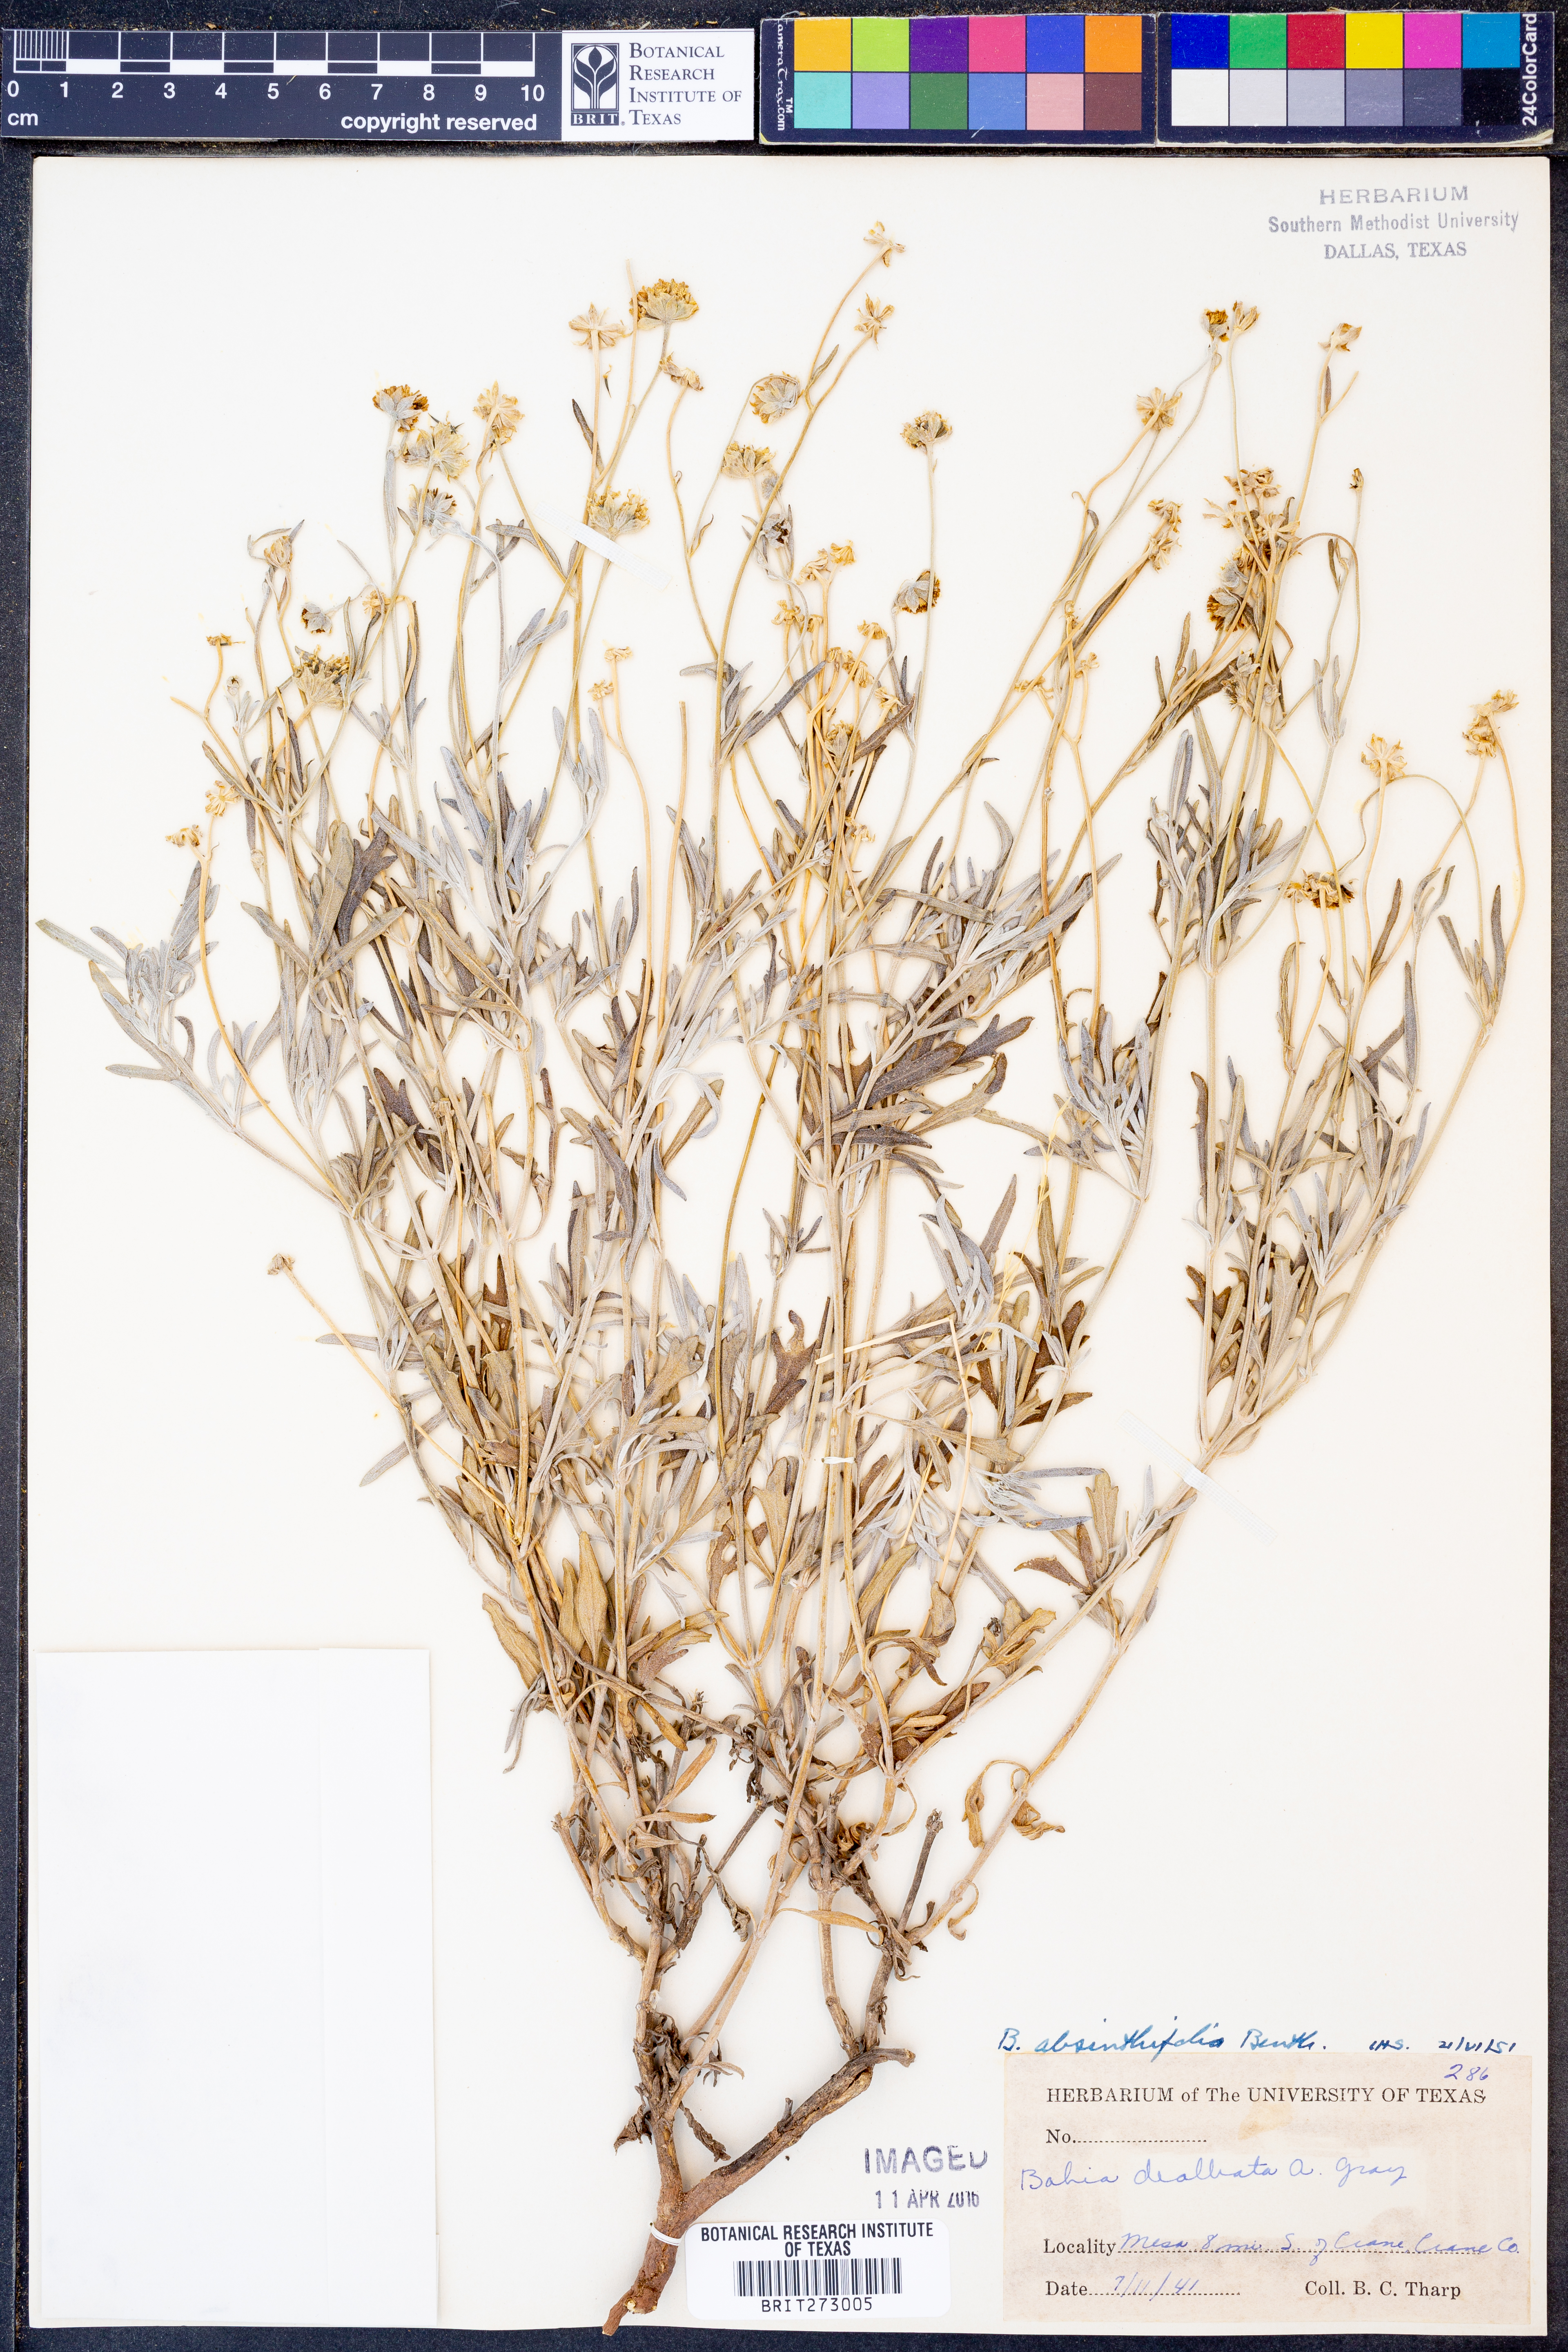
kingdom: Plantae
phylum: Tracheophyta
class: Magnoliopsida
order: Asterales
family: Asteraceae
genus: Picradeniopsis
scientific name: Picradeniopsis absinthifolia
